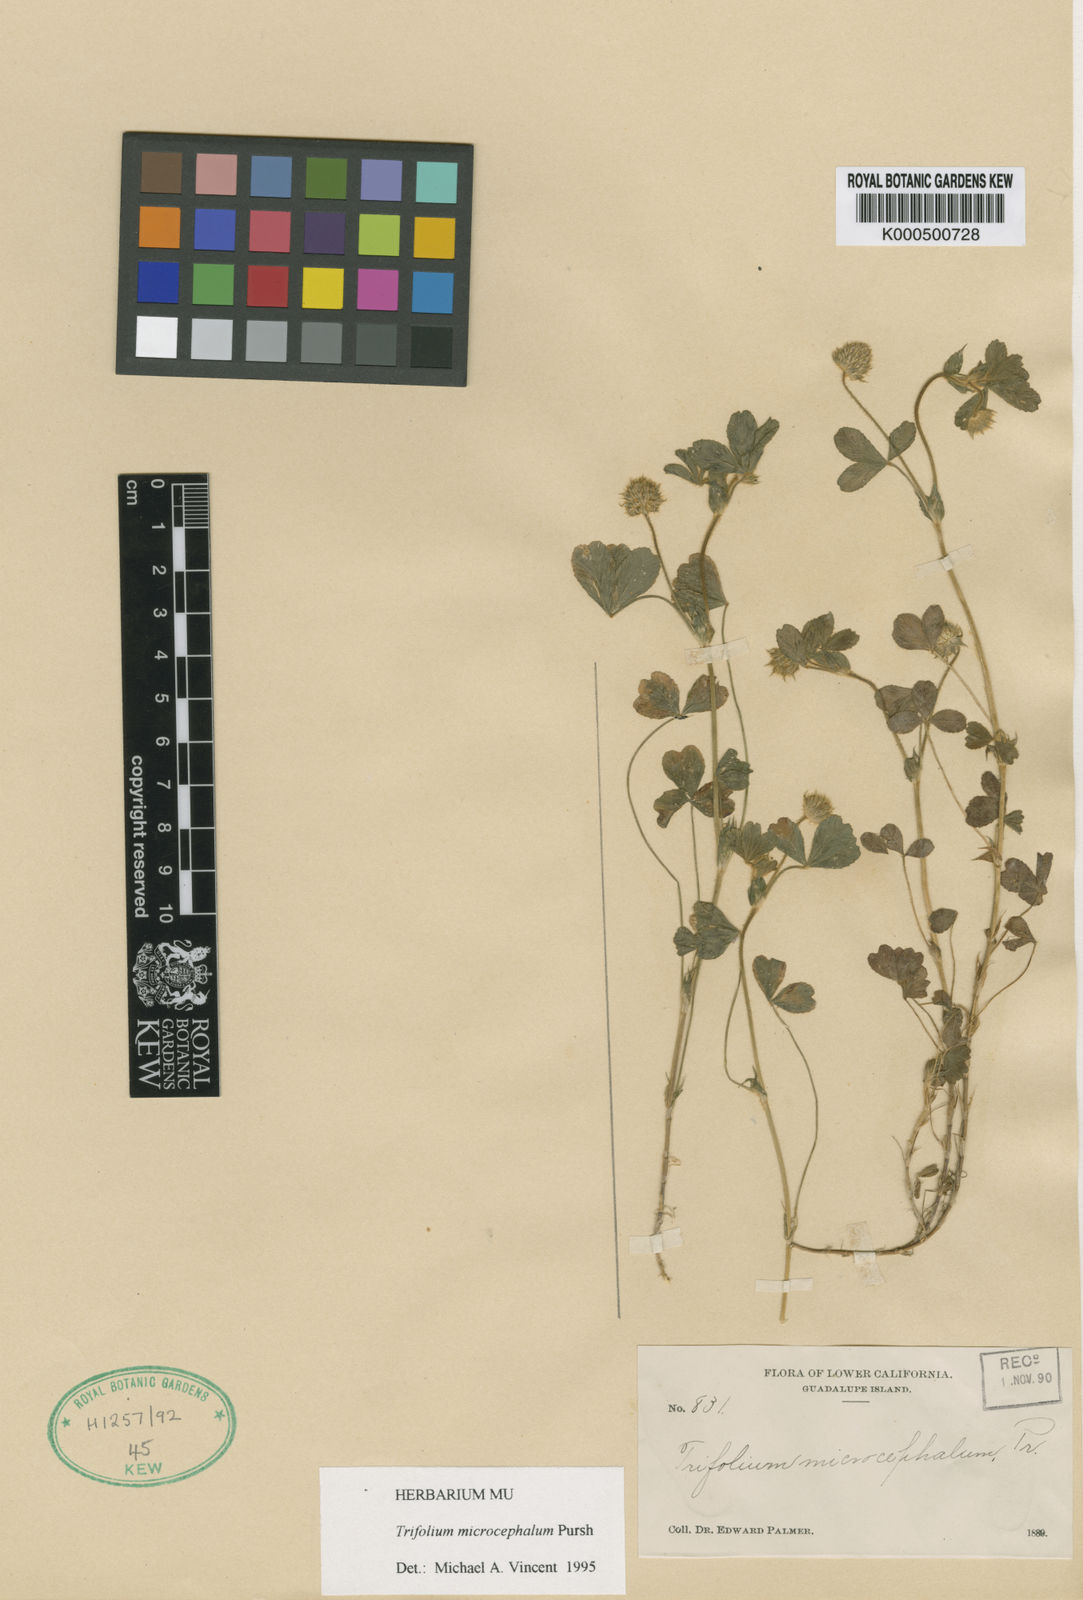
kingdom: Plantae
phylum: Tracheophyta
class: Magnoliopsida
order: Fabales
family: Fabaceae
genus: Trifolium
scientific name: Trifolium microcephalum
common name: Maiden clover
